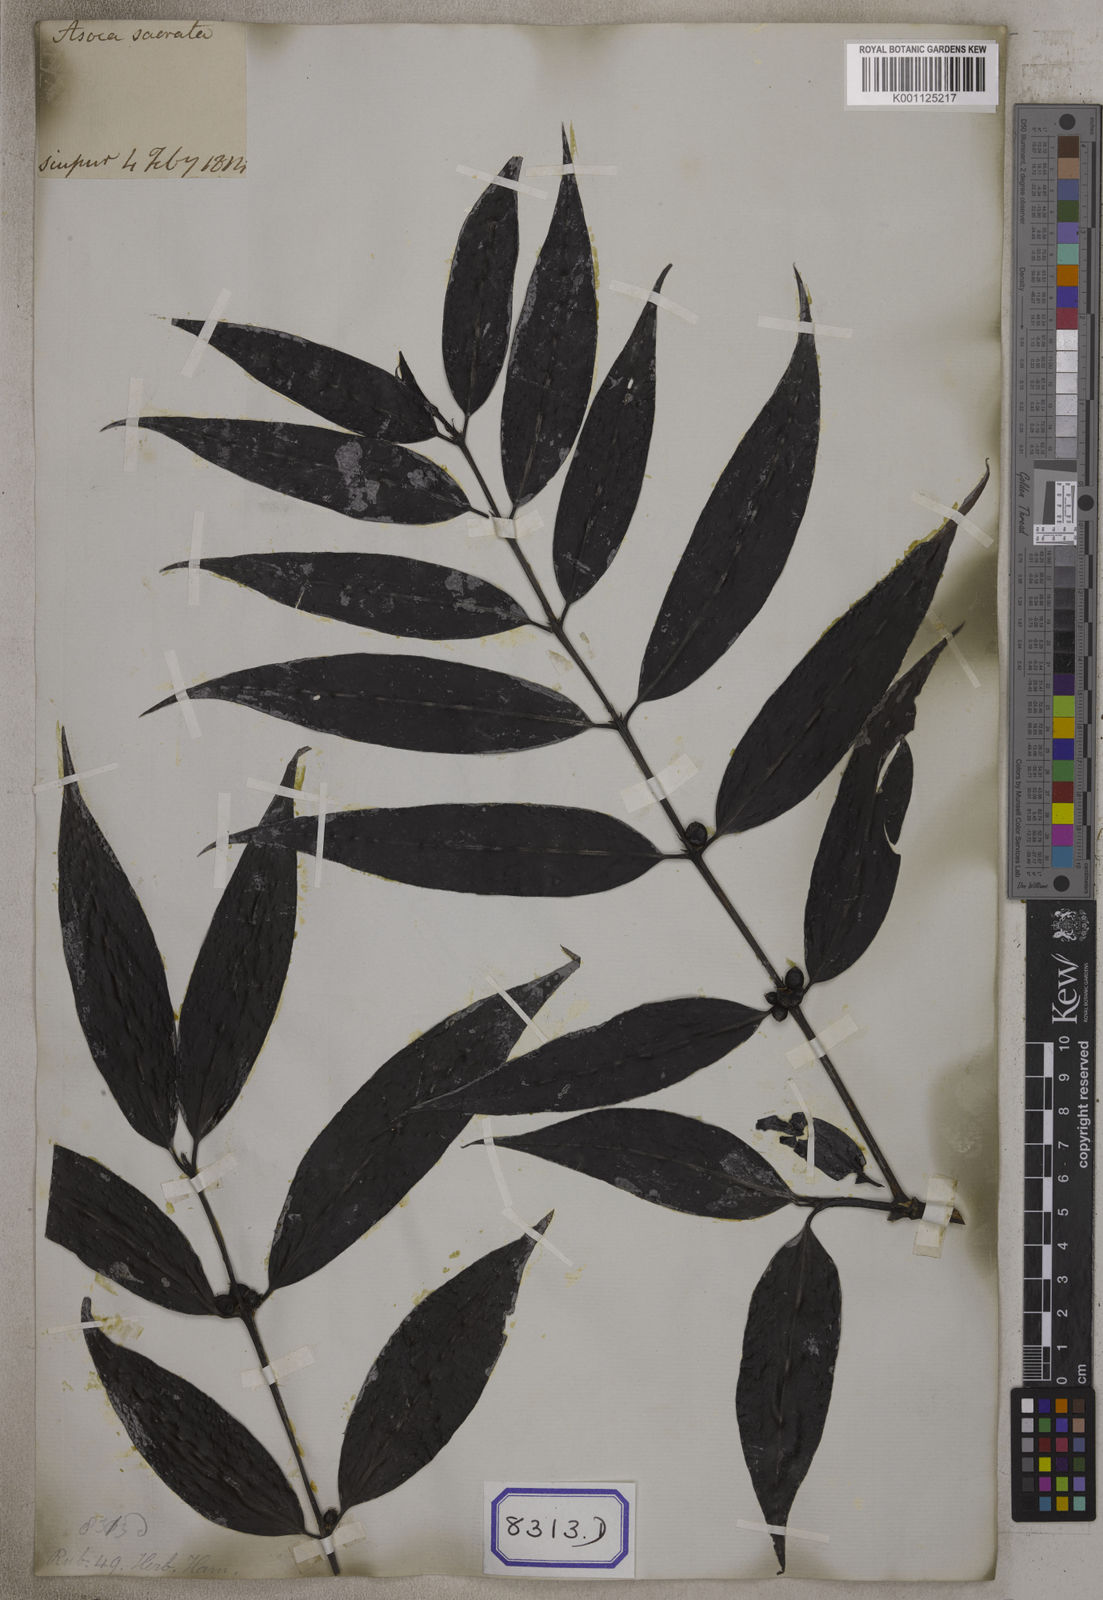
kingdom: Plantae
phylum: Tracheophyta
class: Magnoliopsida
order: Gentianales
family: Rubiaceae
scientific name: Rubiaceae
